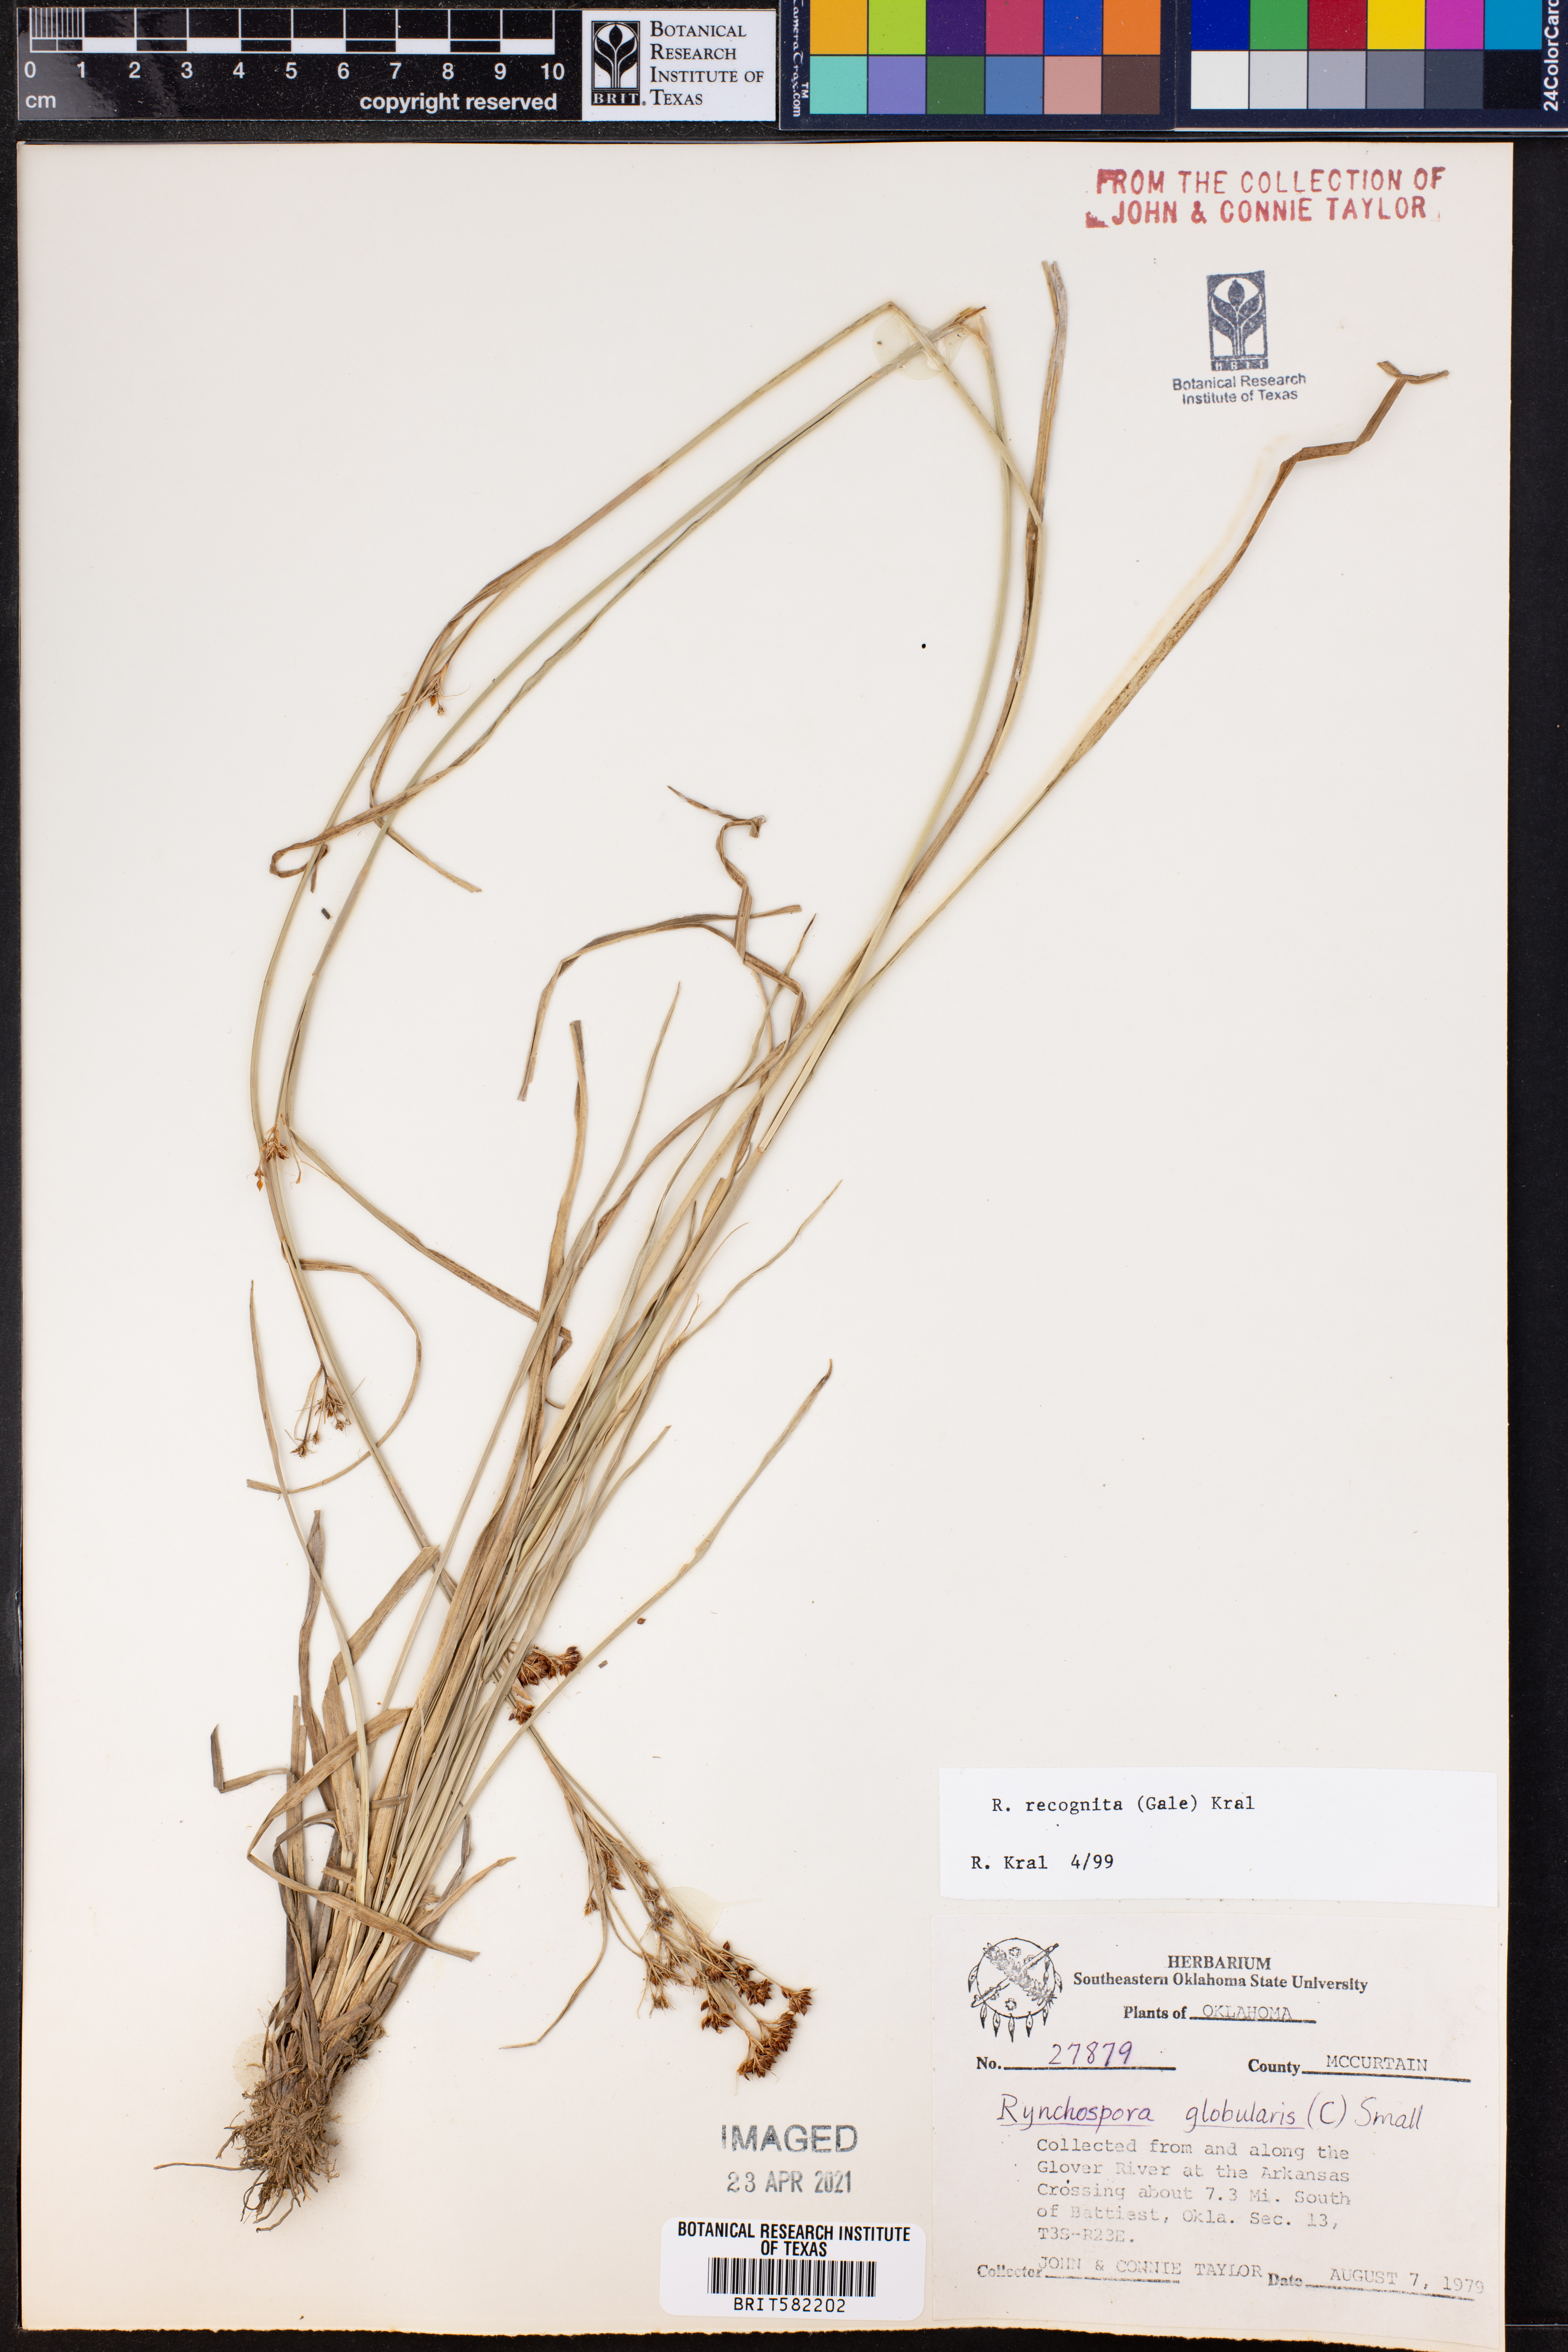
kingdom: Plantae
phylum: Tracheophyta
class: Liliopsida
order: Poales
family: Cyperaceae
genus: Rhynchospora
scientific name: Rhynchospora recognita
